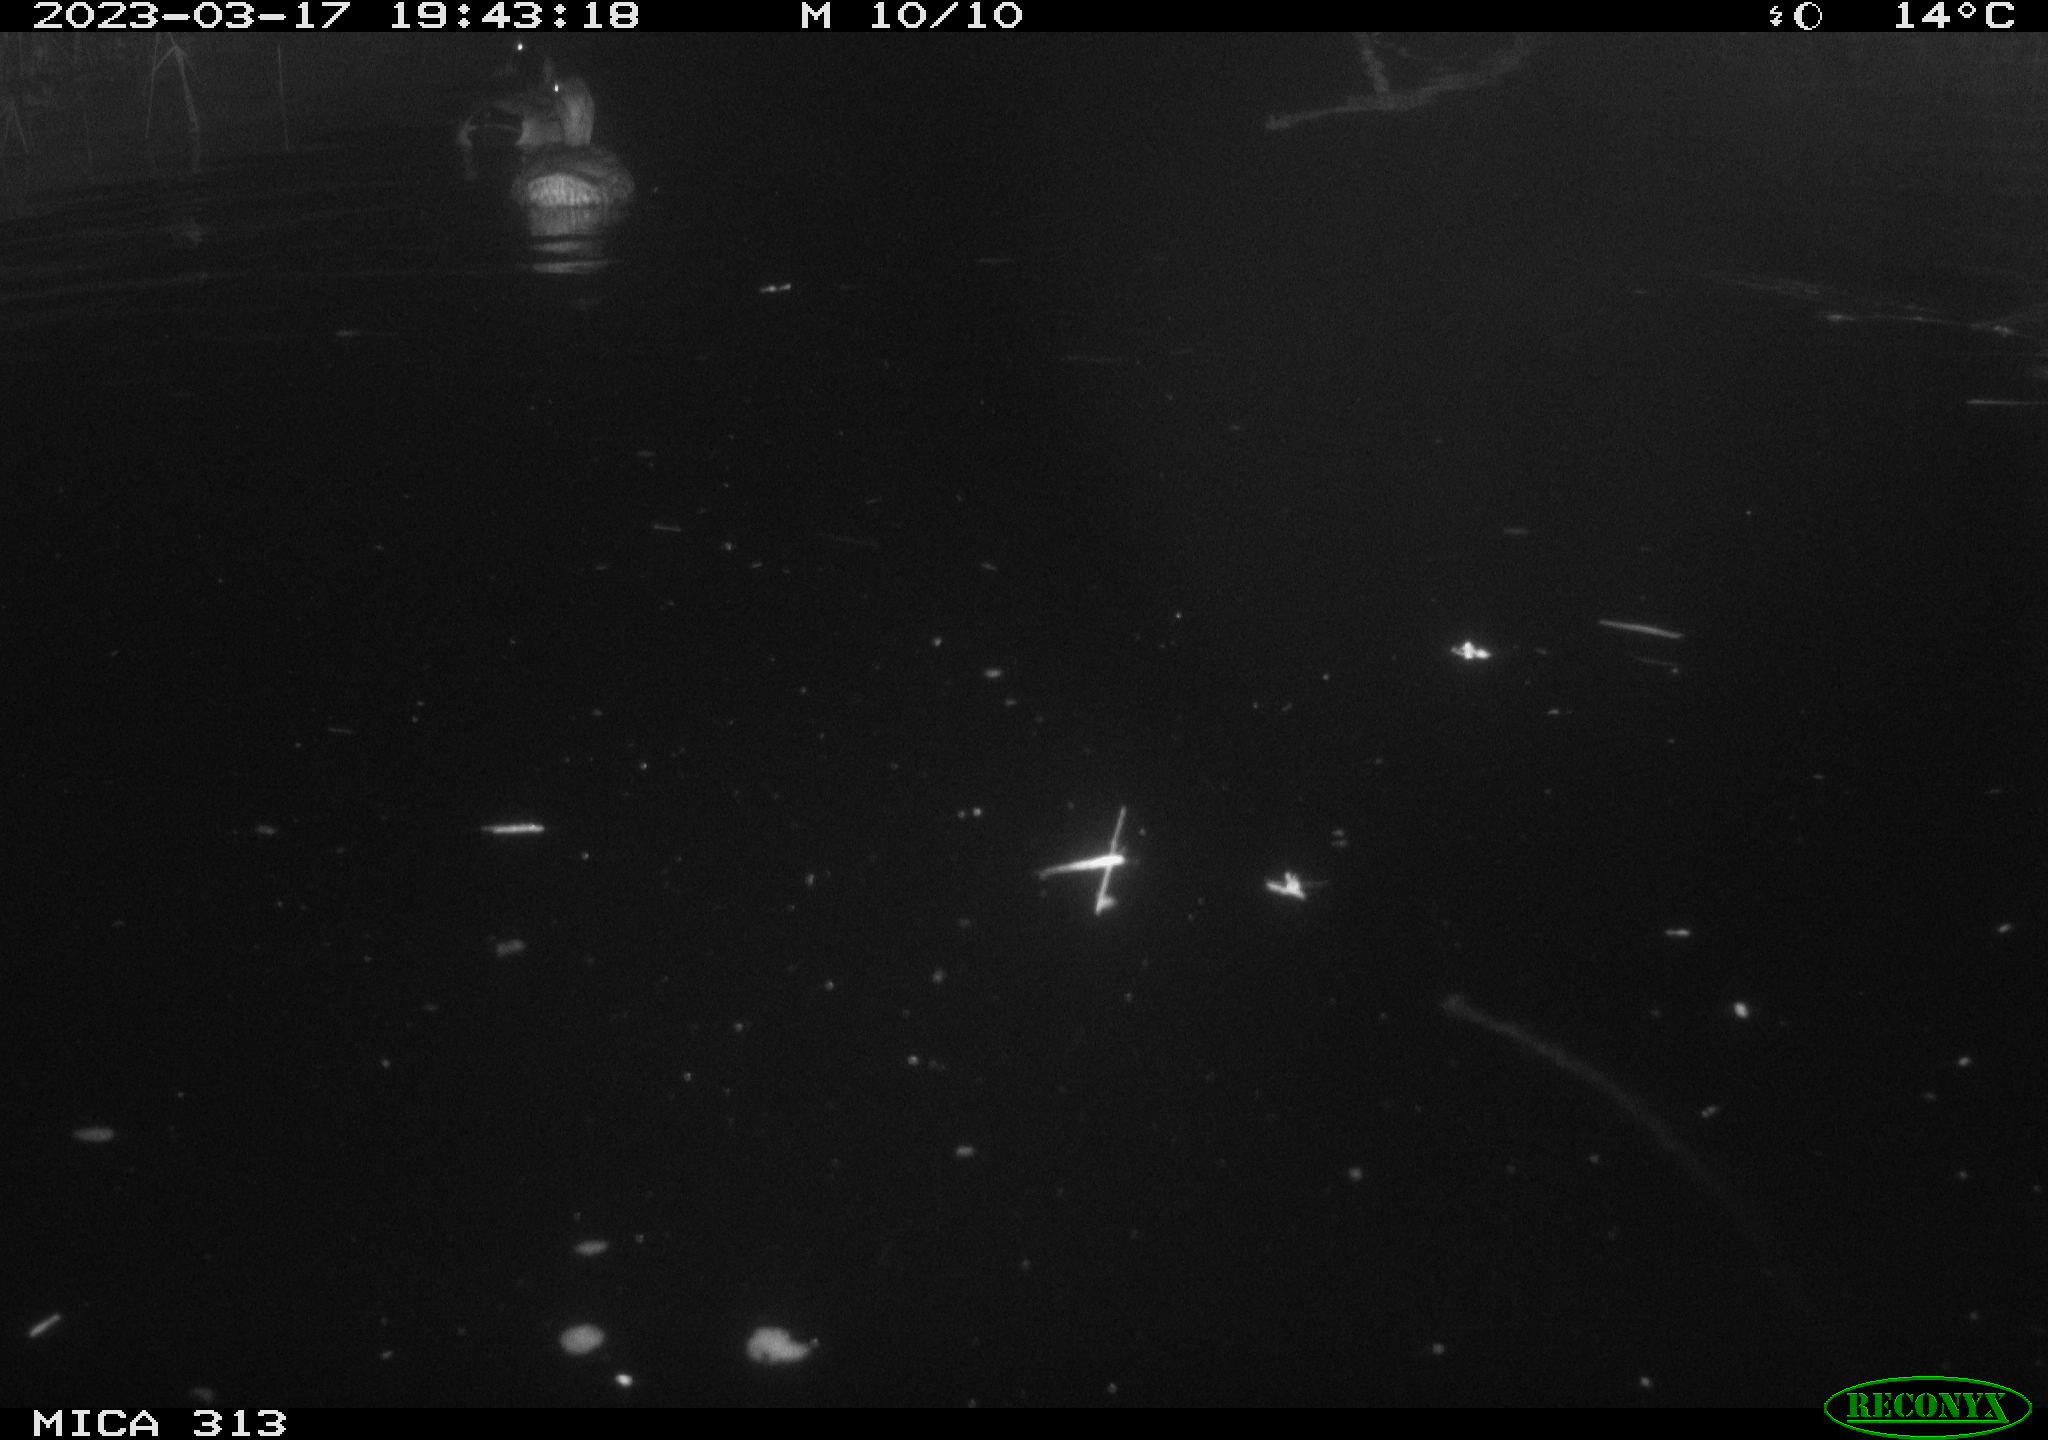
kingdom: Animalia
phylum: Chordata
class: Aves
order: Anseriformes
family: Anatidae
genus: Anas
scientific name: Anas
